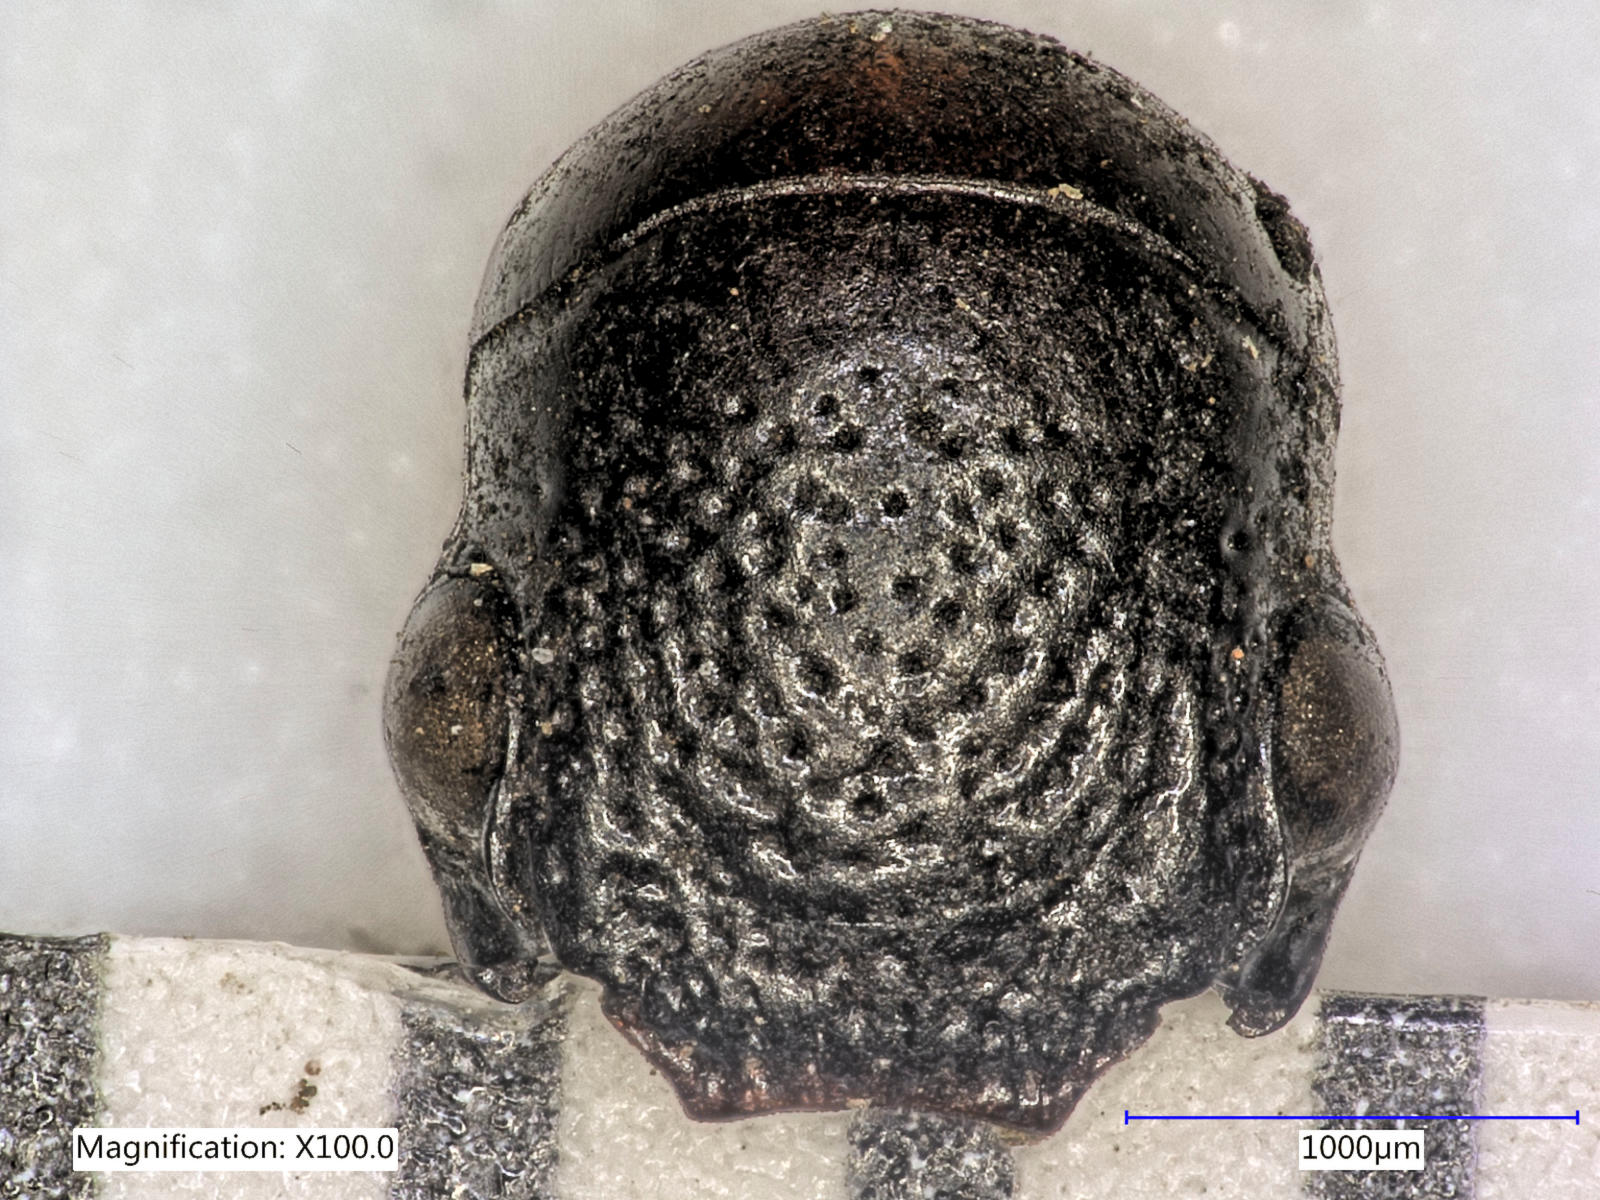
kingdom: Animalia
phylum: Arthropoda
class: Insecta
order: Coleoptera
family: Carabidae
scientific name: Carabidae
